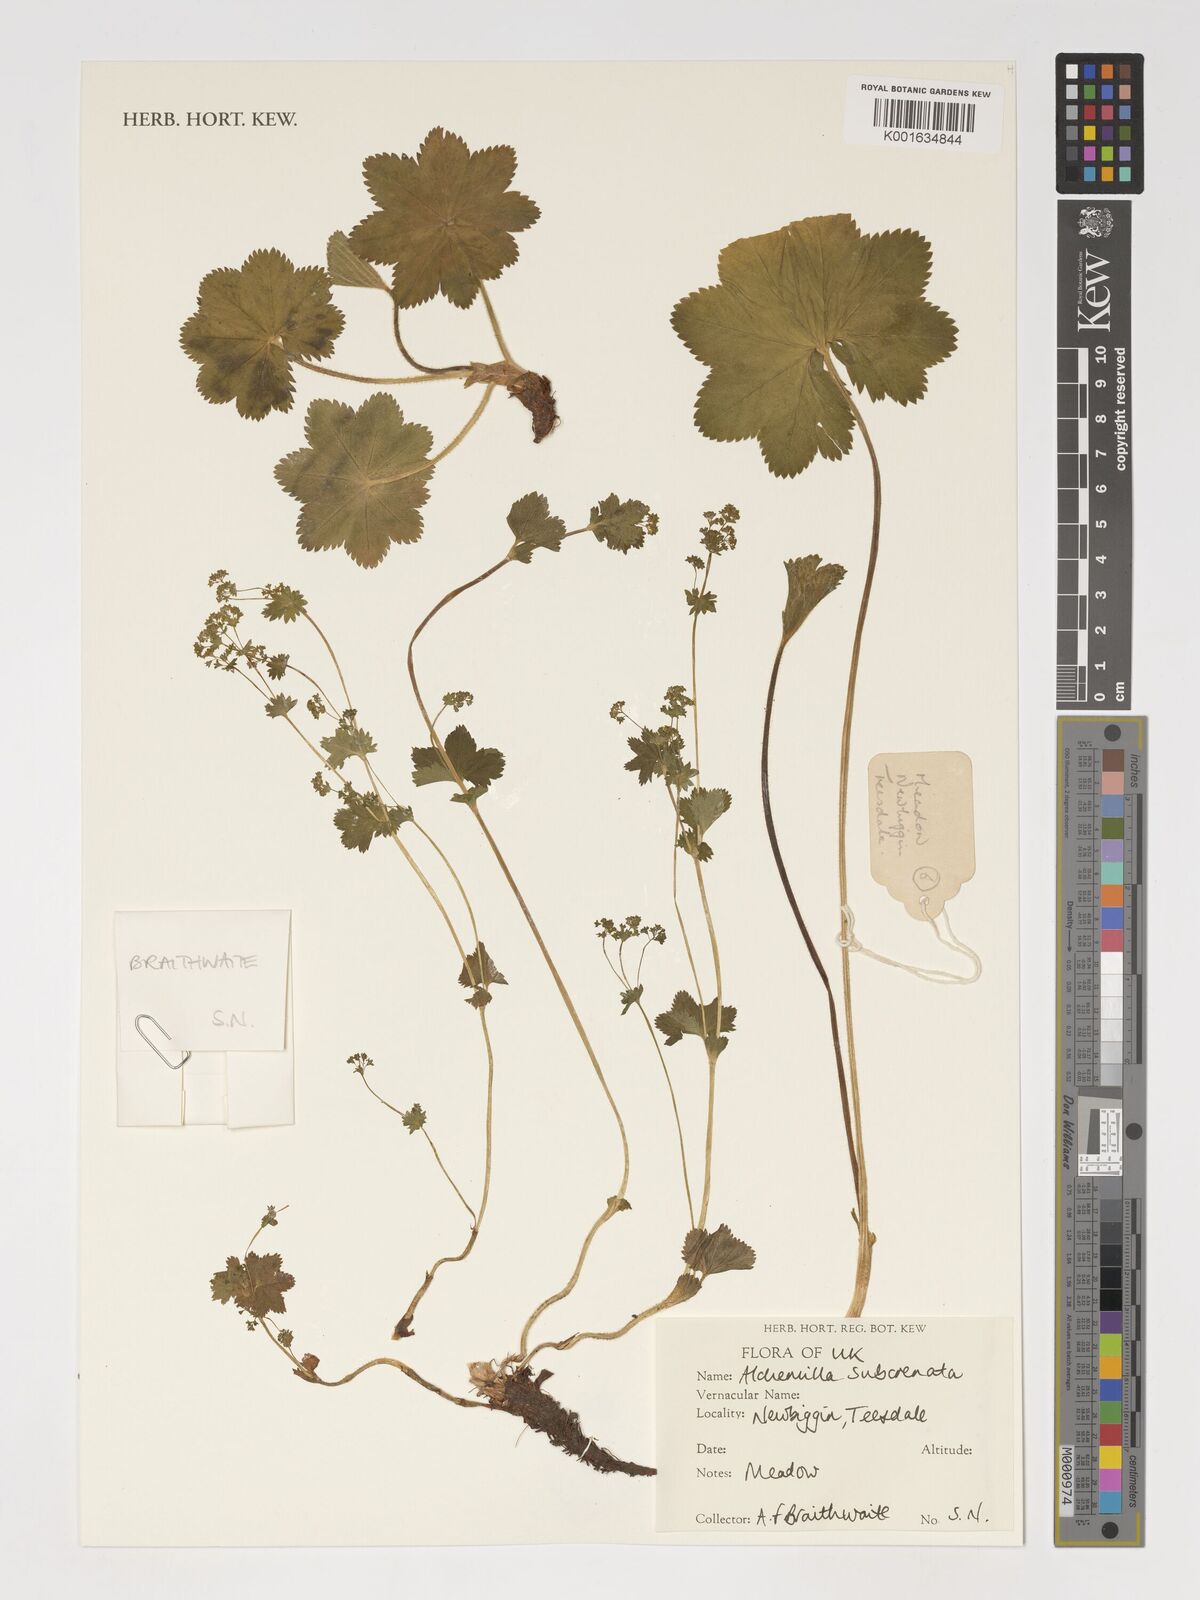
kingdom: Plantae
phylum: Tracheophyta
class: Magnoliopsida
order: Rosales
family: Rosaceae
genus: Alchemilla
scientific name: Alchemilla subcrenata
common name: Broadtooth lady's mantle
